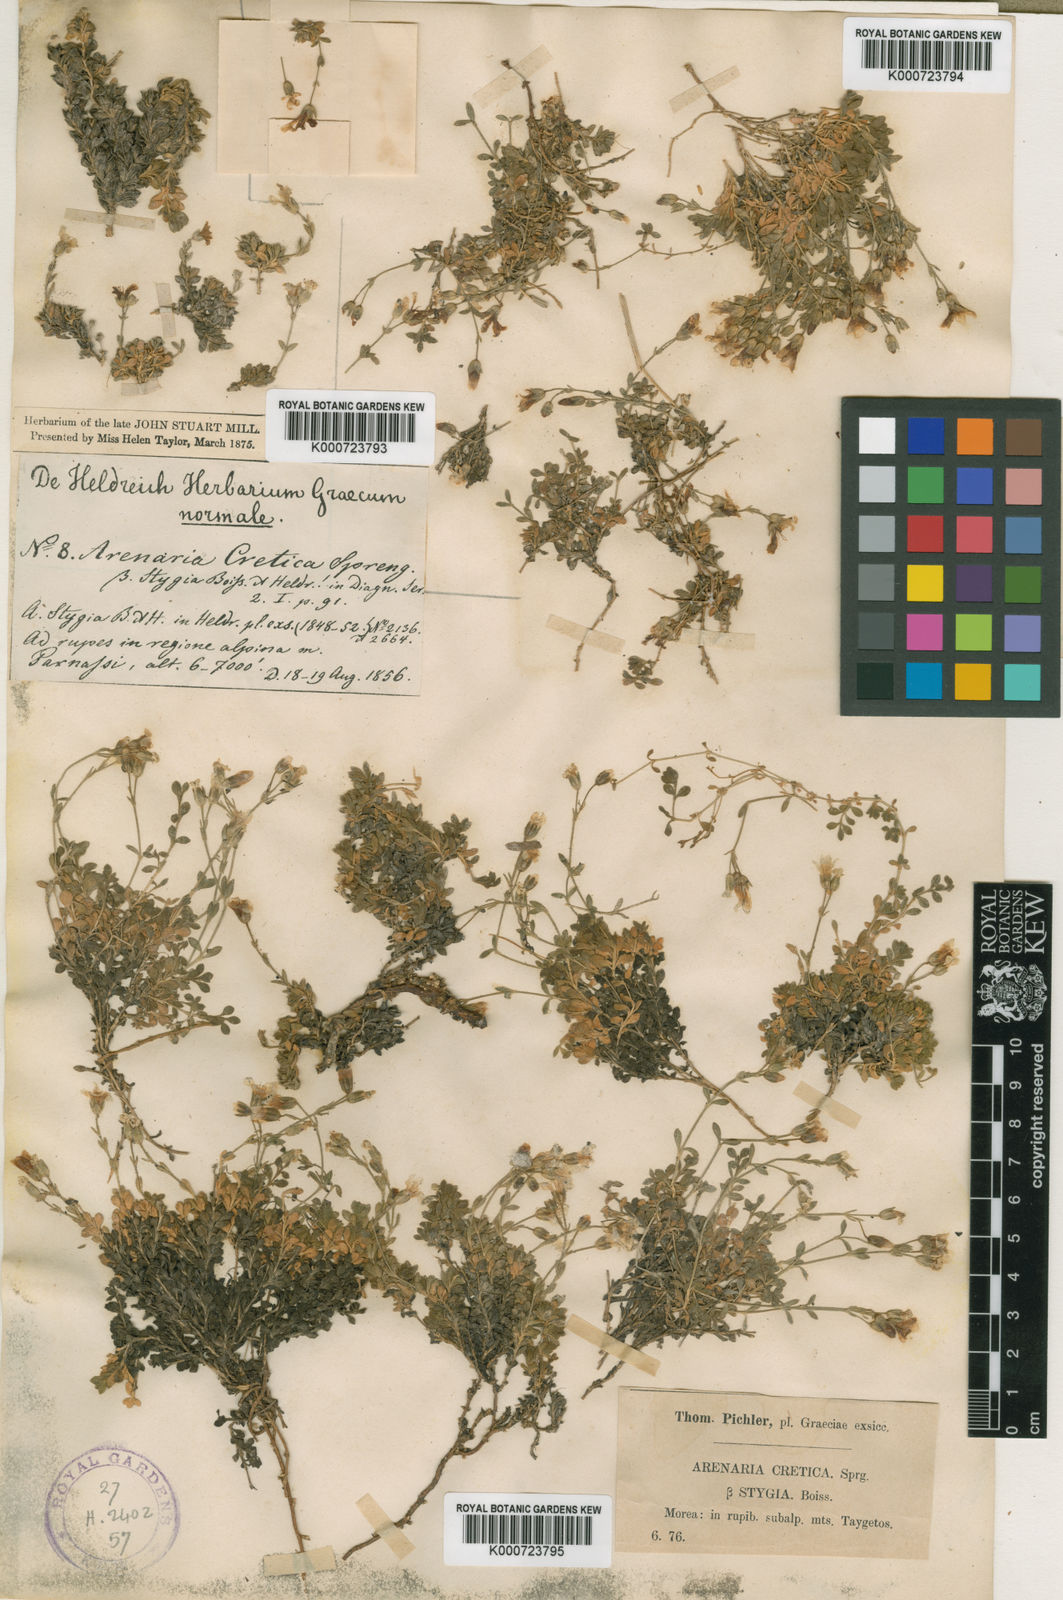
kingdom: Plantae
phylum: Tracheophyta
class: Magnoliopsida
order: Caryophyllales
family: Caryophyllaceae
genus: Arenaria
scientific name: Arenaria cretica
